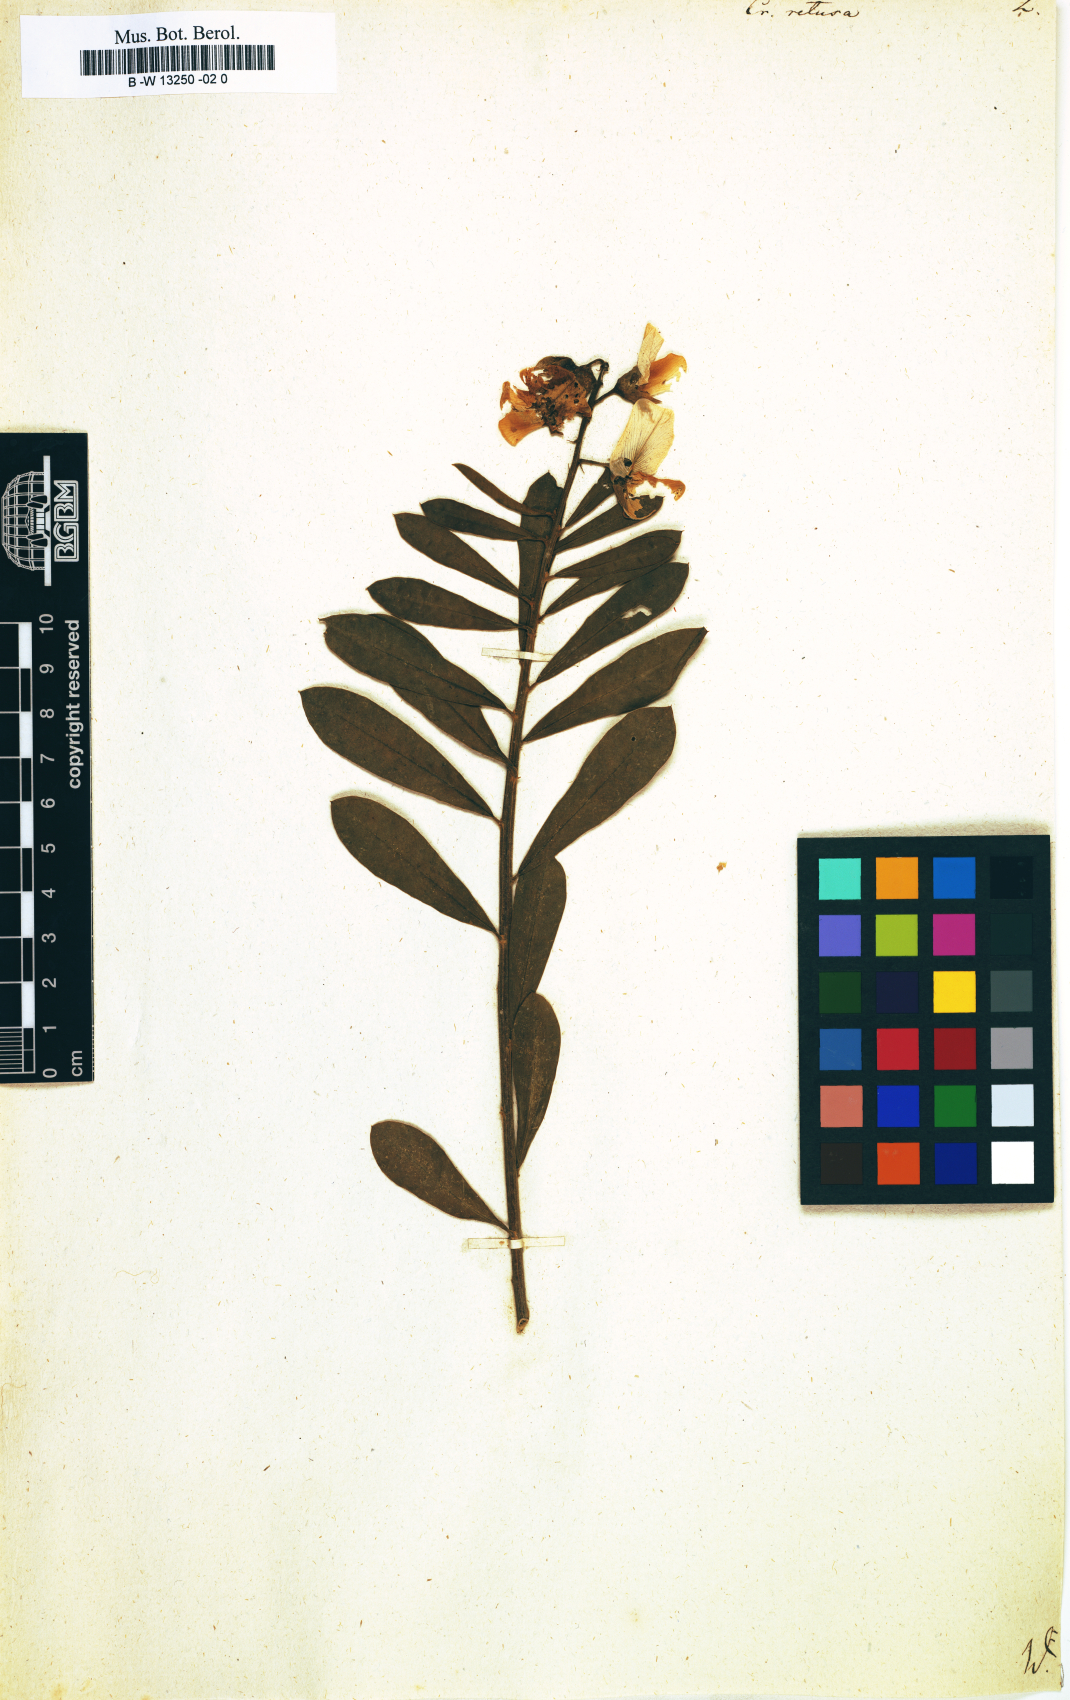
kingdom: Plantae
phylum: Tracheophyta
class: Magnoliopsida
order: Fabales
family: Fabaceae
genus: Crotalaria
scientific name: Crotalaria retusa
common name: Rattleweed
